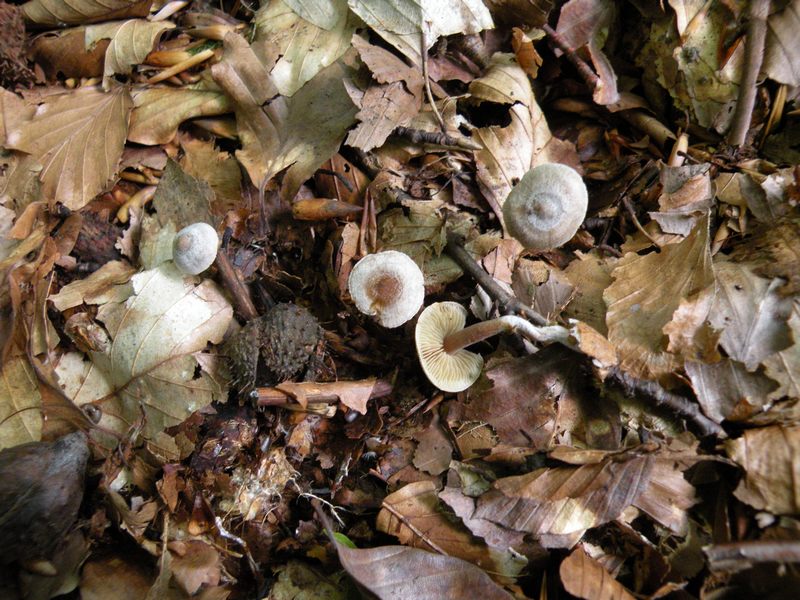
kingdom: Fungi
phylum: Basidiomycota
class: Agaricomycetes
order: Agaricales
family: Inocybaceae
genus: Inocybe
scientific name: Inocybe petiginosa
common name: liden trævlhat
